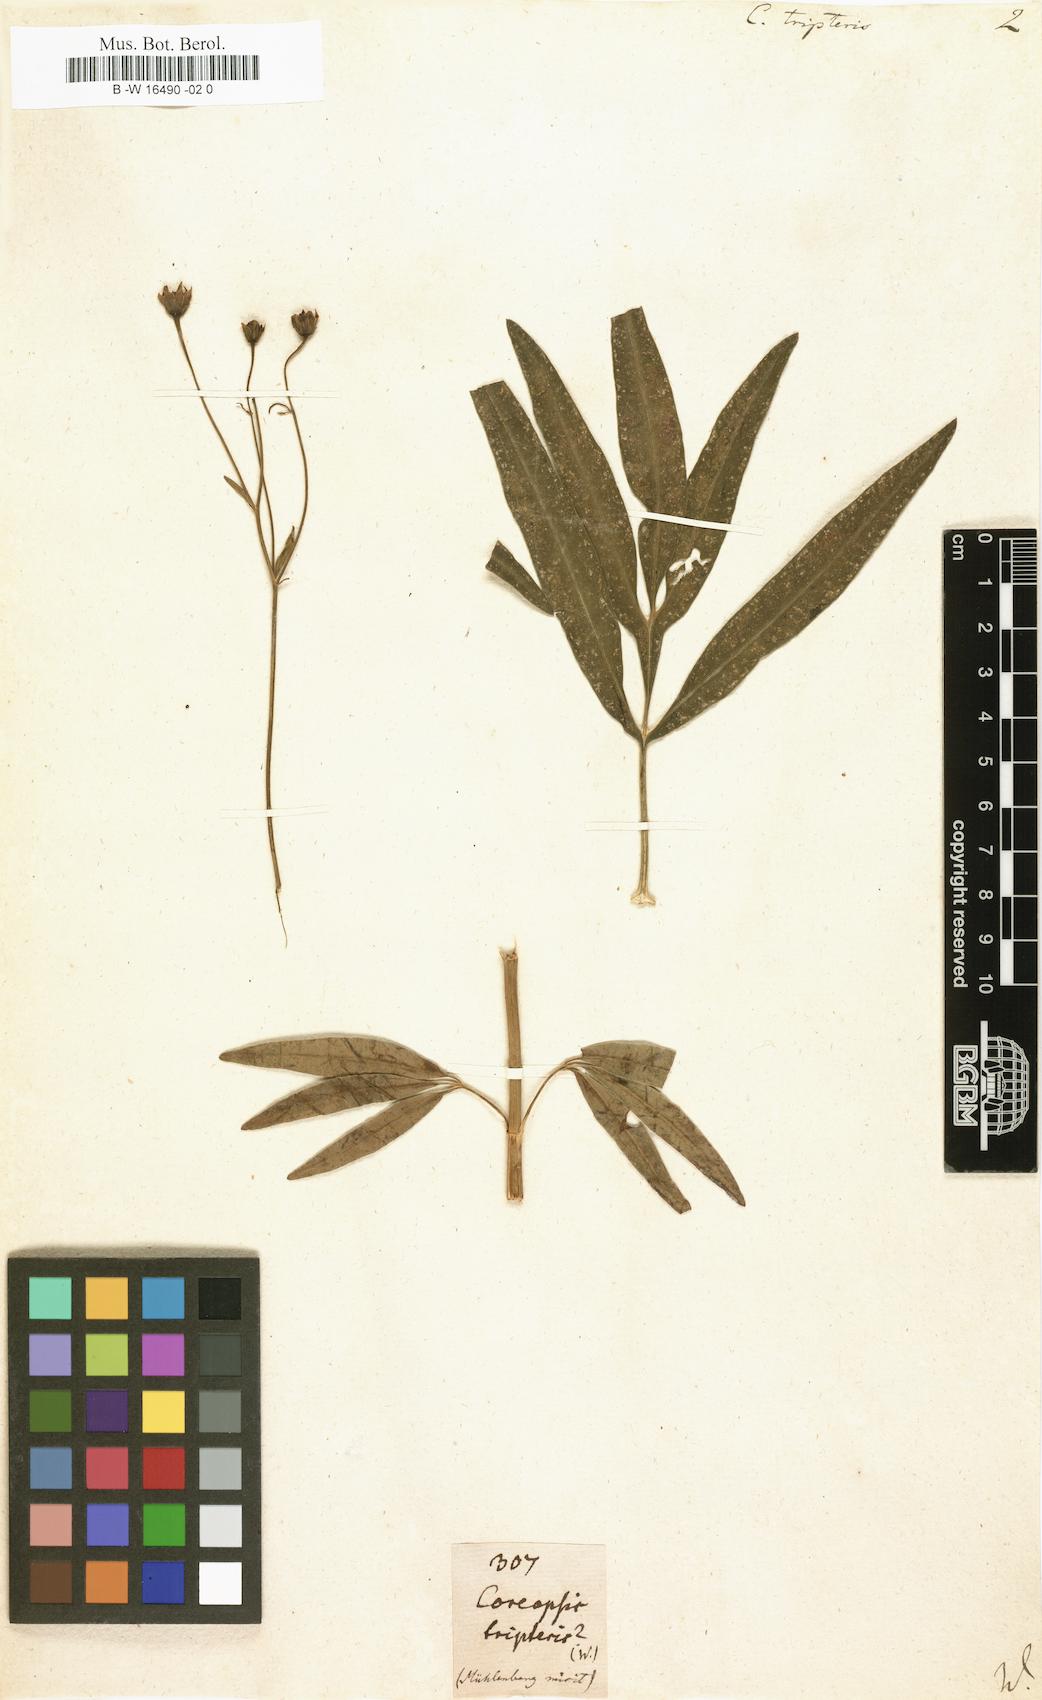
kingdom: Plantae
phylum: Tracheophyta
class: Magnoliopsida
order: Asterales
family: Asteraceae
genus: Coreopsis
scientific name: Coreopsis tripteris
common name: Tall coreopsis
